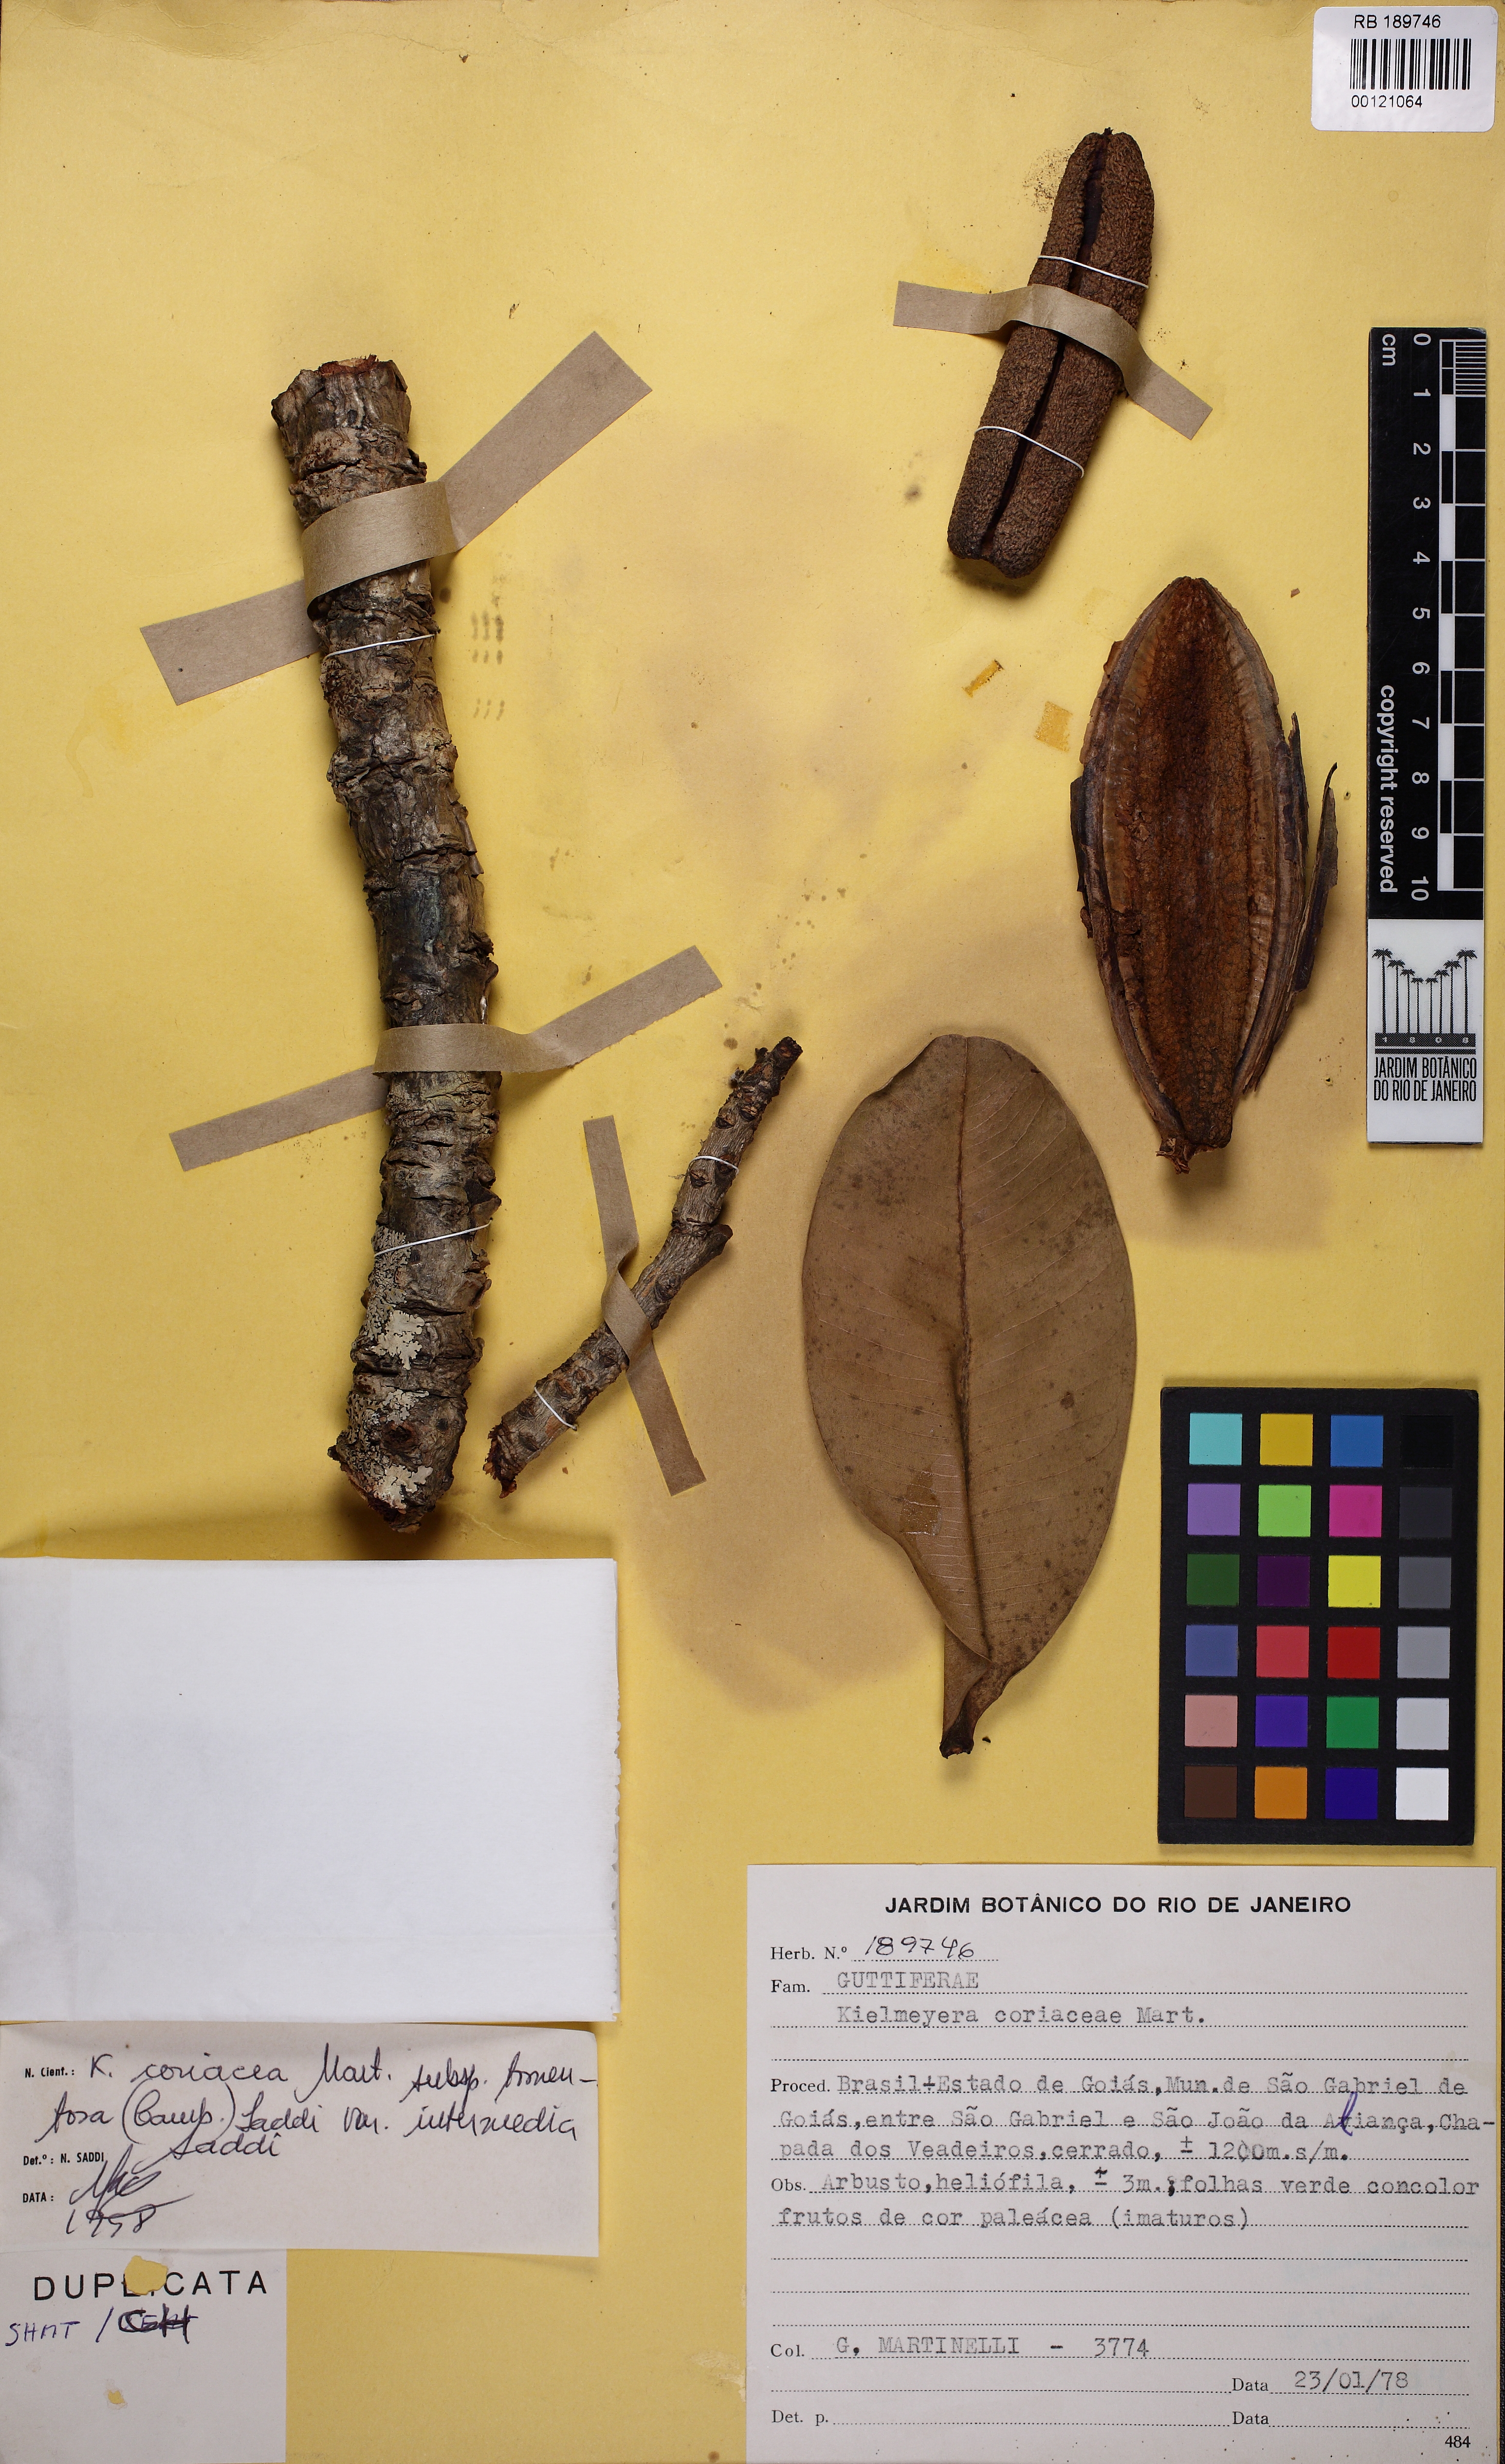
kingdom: Plantae
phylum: Tracheophyta
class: Magnoliopsida
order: Malpighiales
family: Calophyllaceae
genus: Kielmeyera
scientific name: Kielmeyera coriacea
